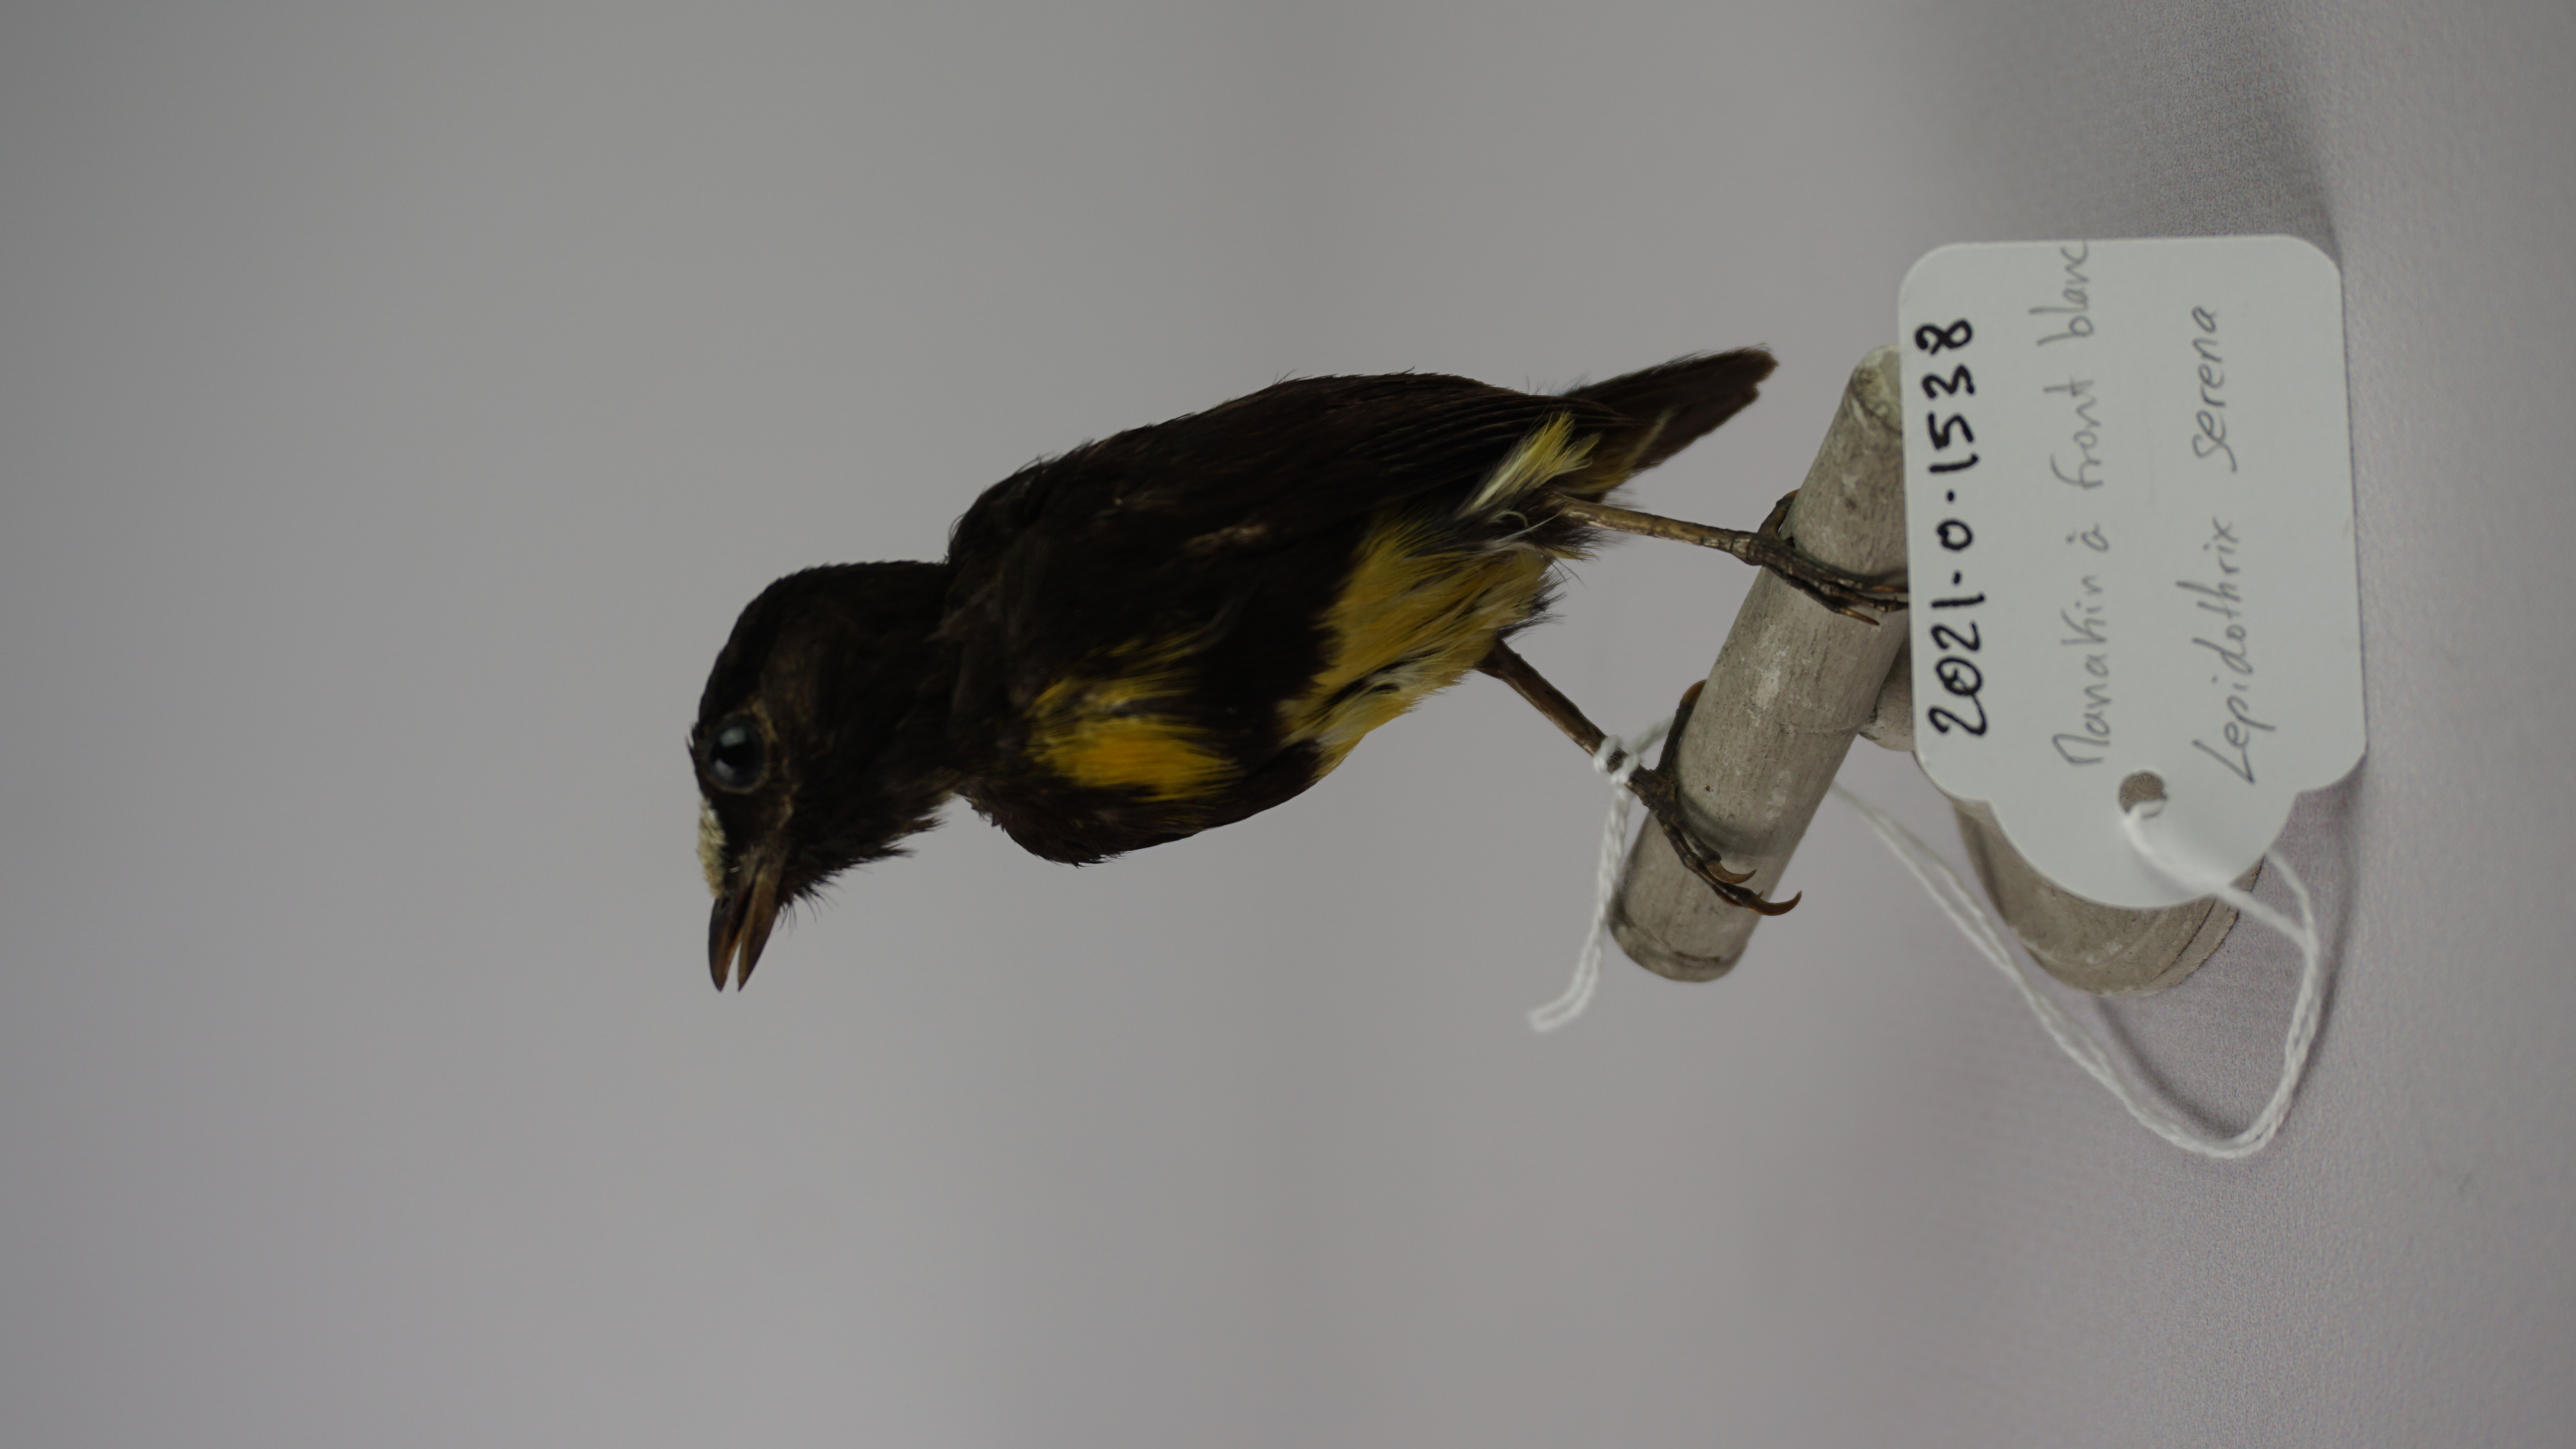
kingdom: Animalia
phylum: Chordata
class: Aves
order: Passeriformes
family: Pipridae
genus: Lepidothrix
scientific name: Lepidothrix serena
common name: White-fronted manakin
